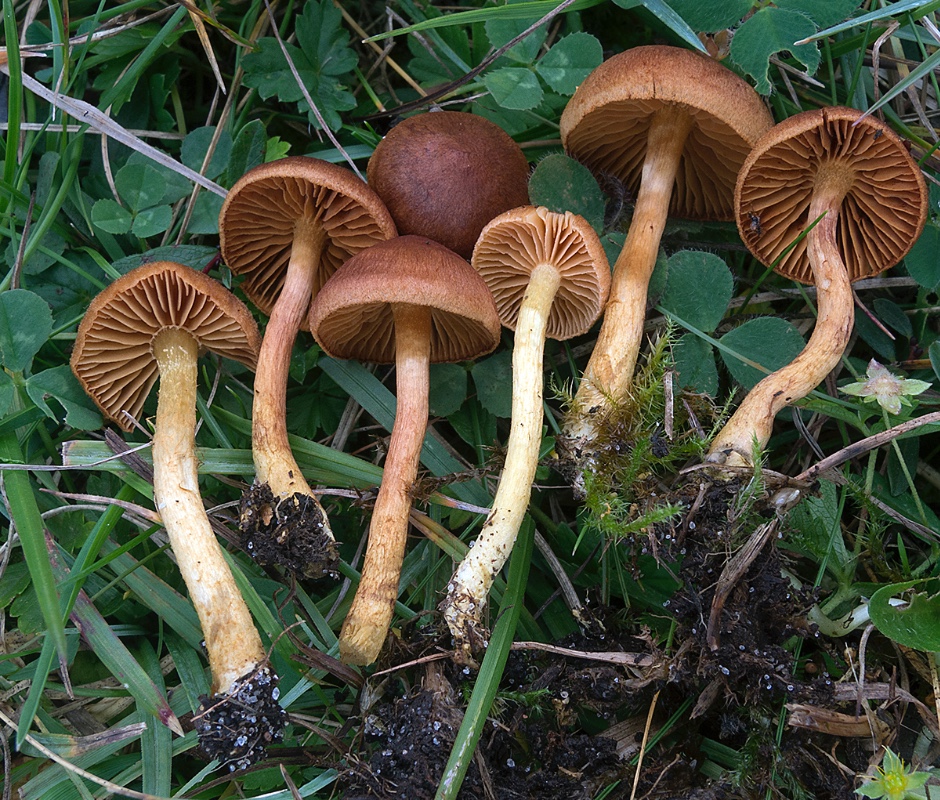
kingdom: Fungi
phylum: Basidiomycota
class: Agaricomycetes
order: Agaricales
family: Cortinariaceae
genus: Cortinarius
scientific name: Cortinarius pratensis
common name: hede-slørhat
